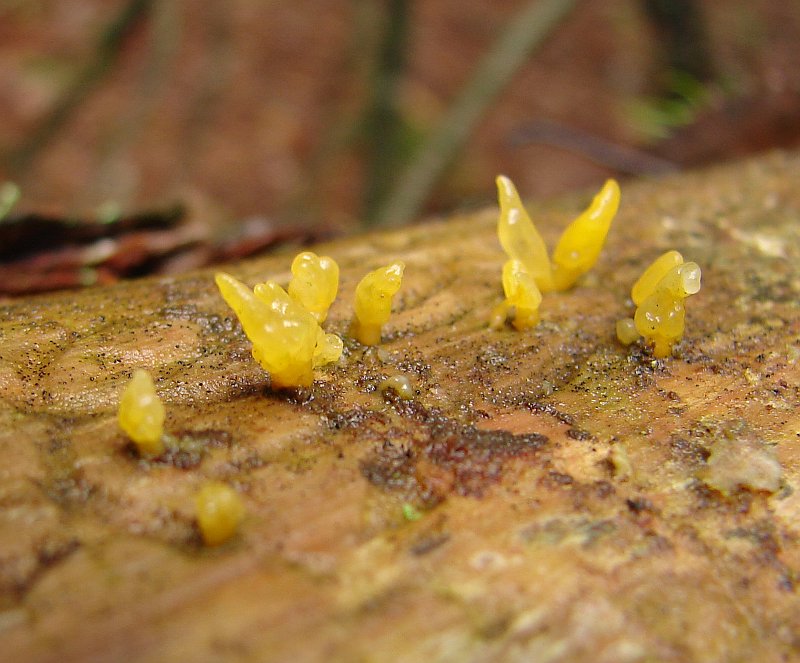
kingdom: Fungi
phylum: Basidiomycota
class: Dacrymycetes
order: Dacrymycetales
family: Dacrymycetaceae
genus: Calocera
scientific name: Calocera furcata
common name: fyrre-guldgaffel
